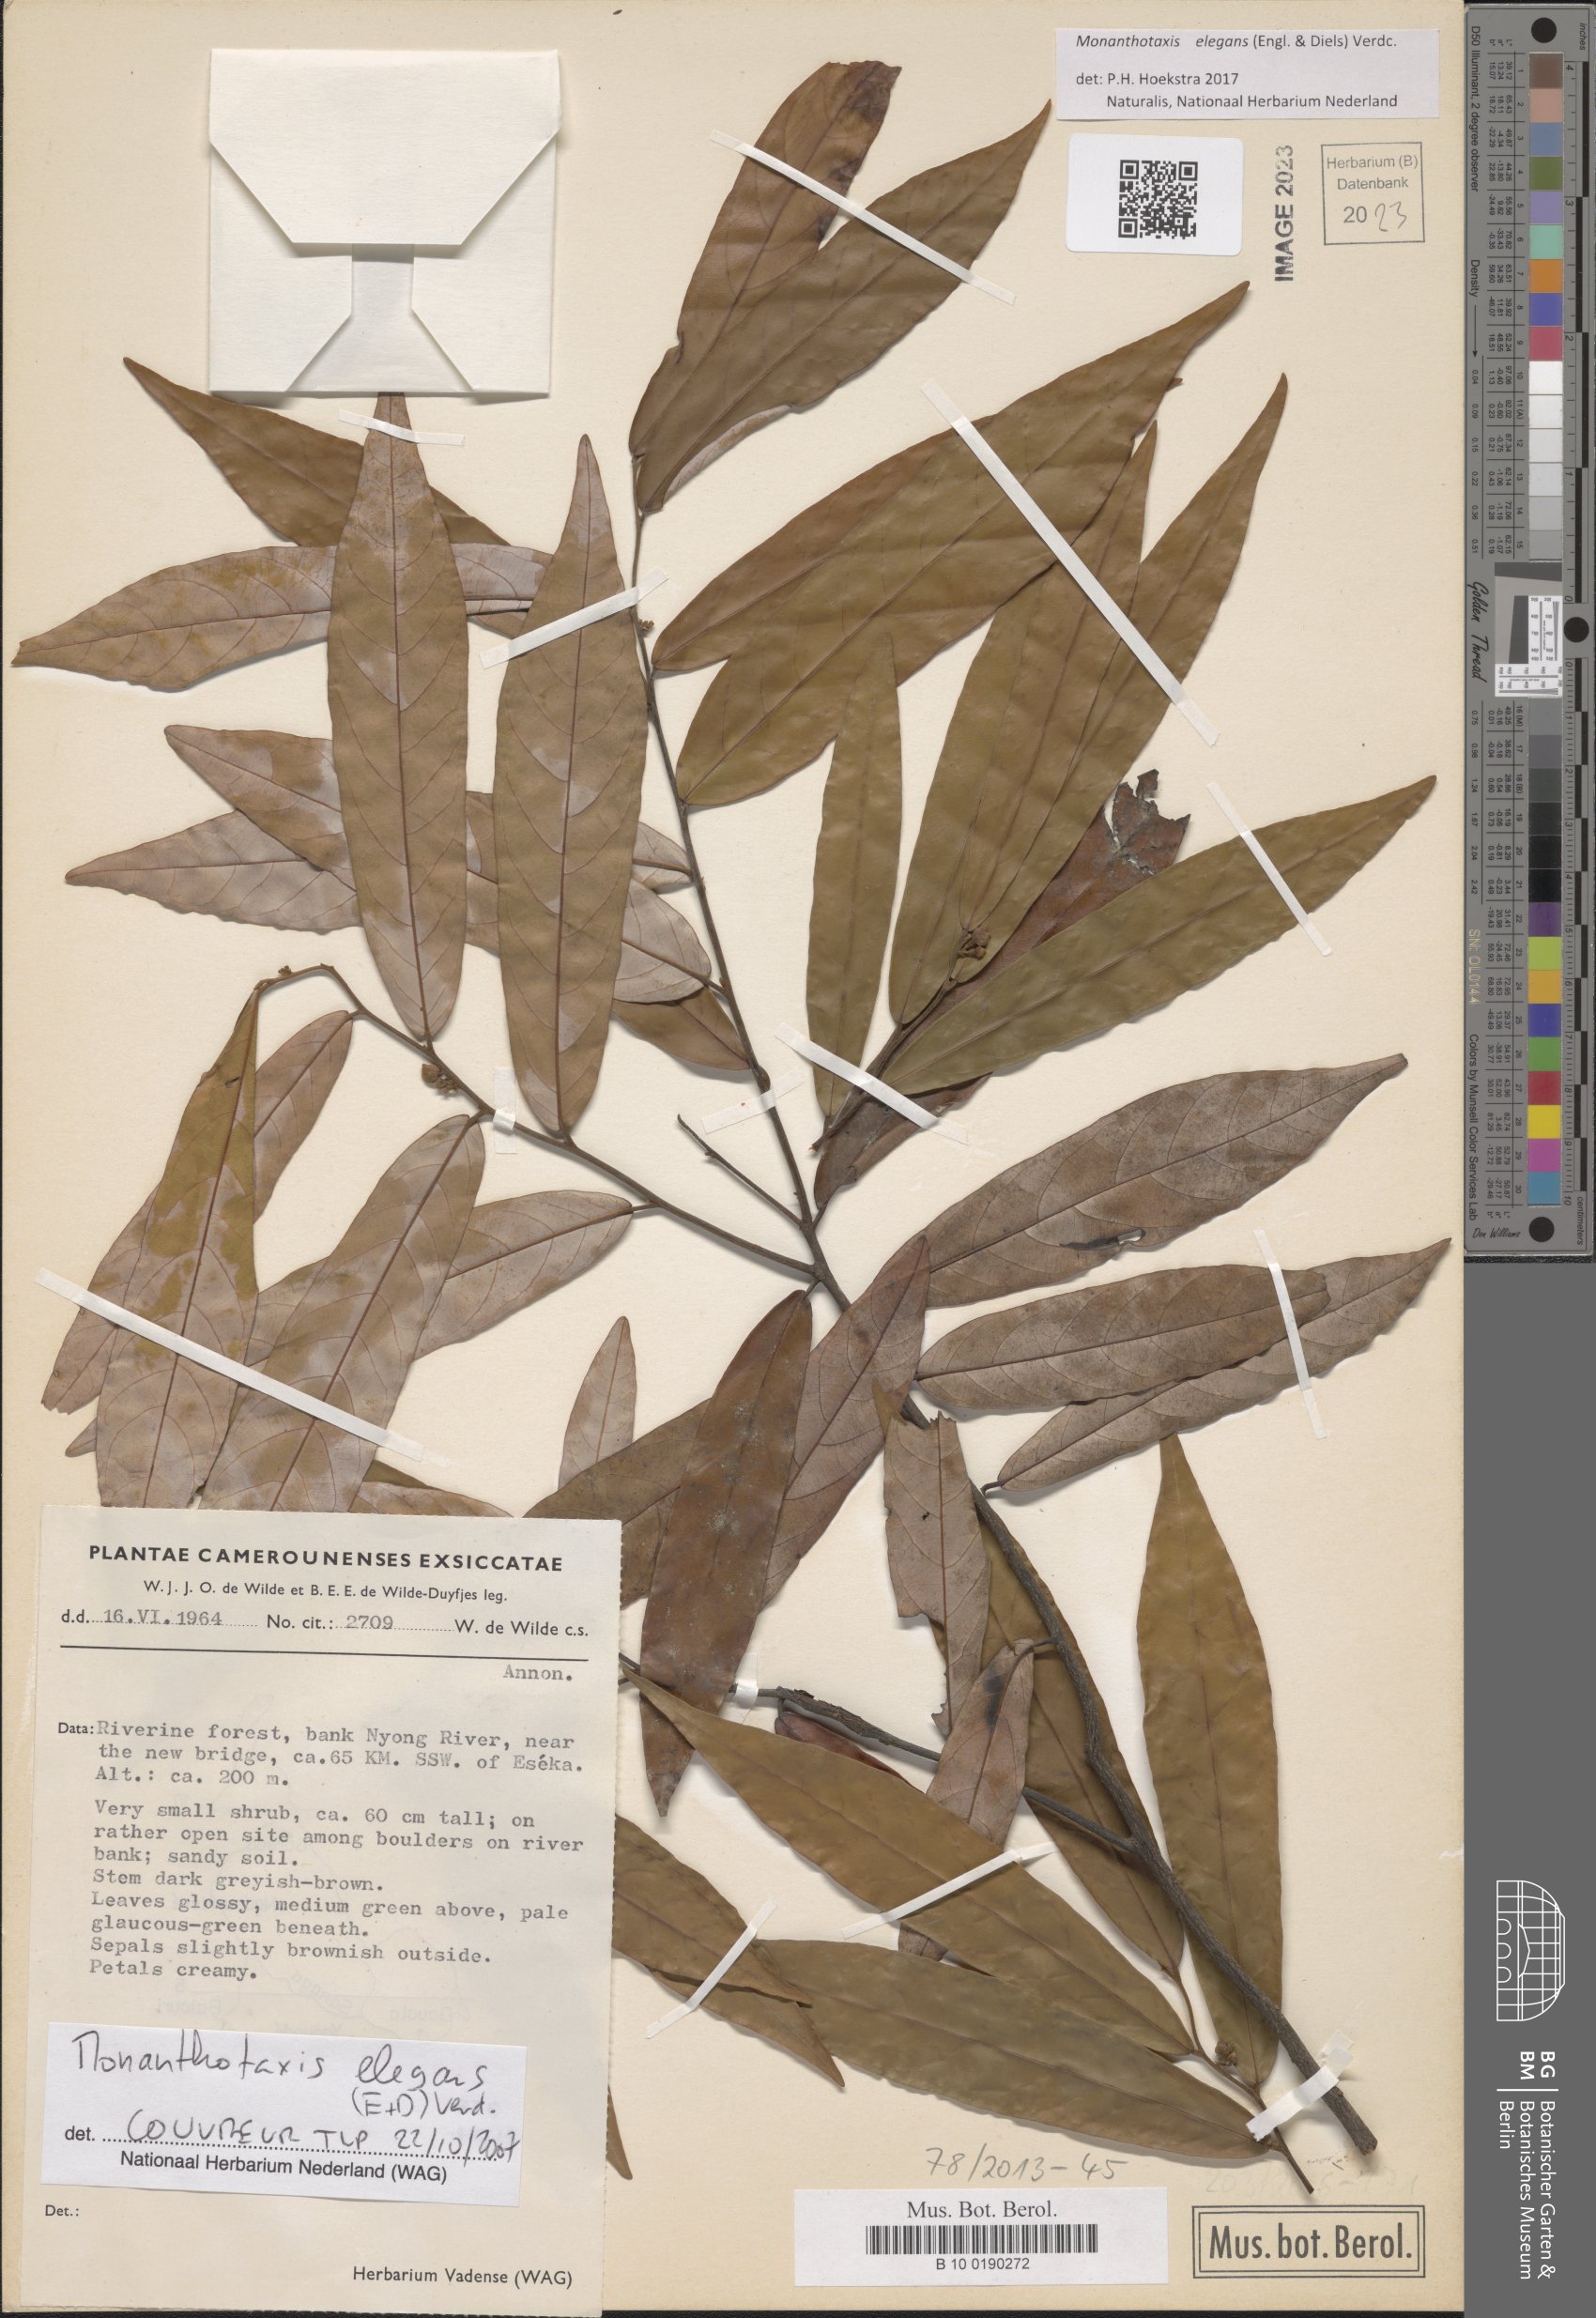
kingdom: Plantae
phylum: Tracheophyta
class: Magnoliopsida
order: Magnoliales
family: Annonaceae
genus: Monanthotaxis
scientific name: Monanthotaxis elegans
